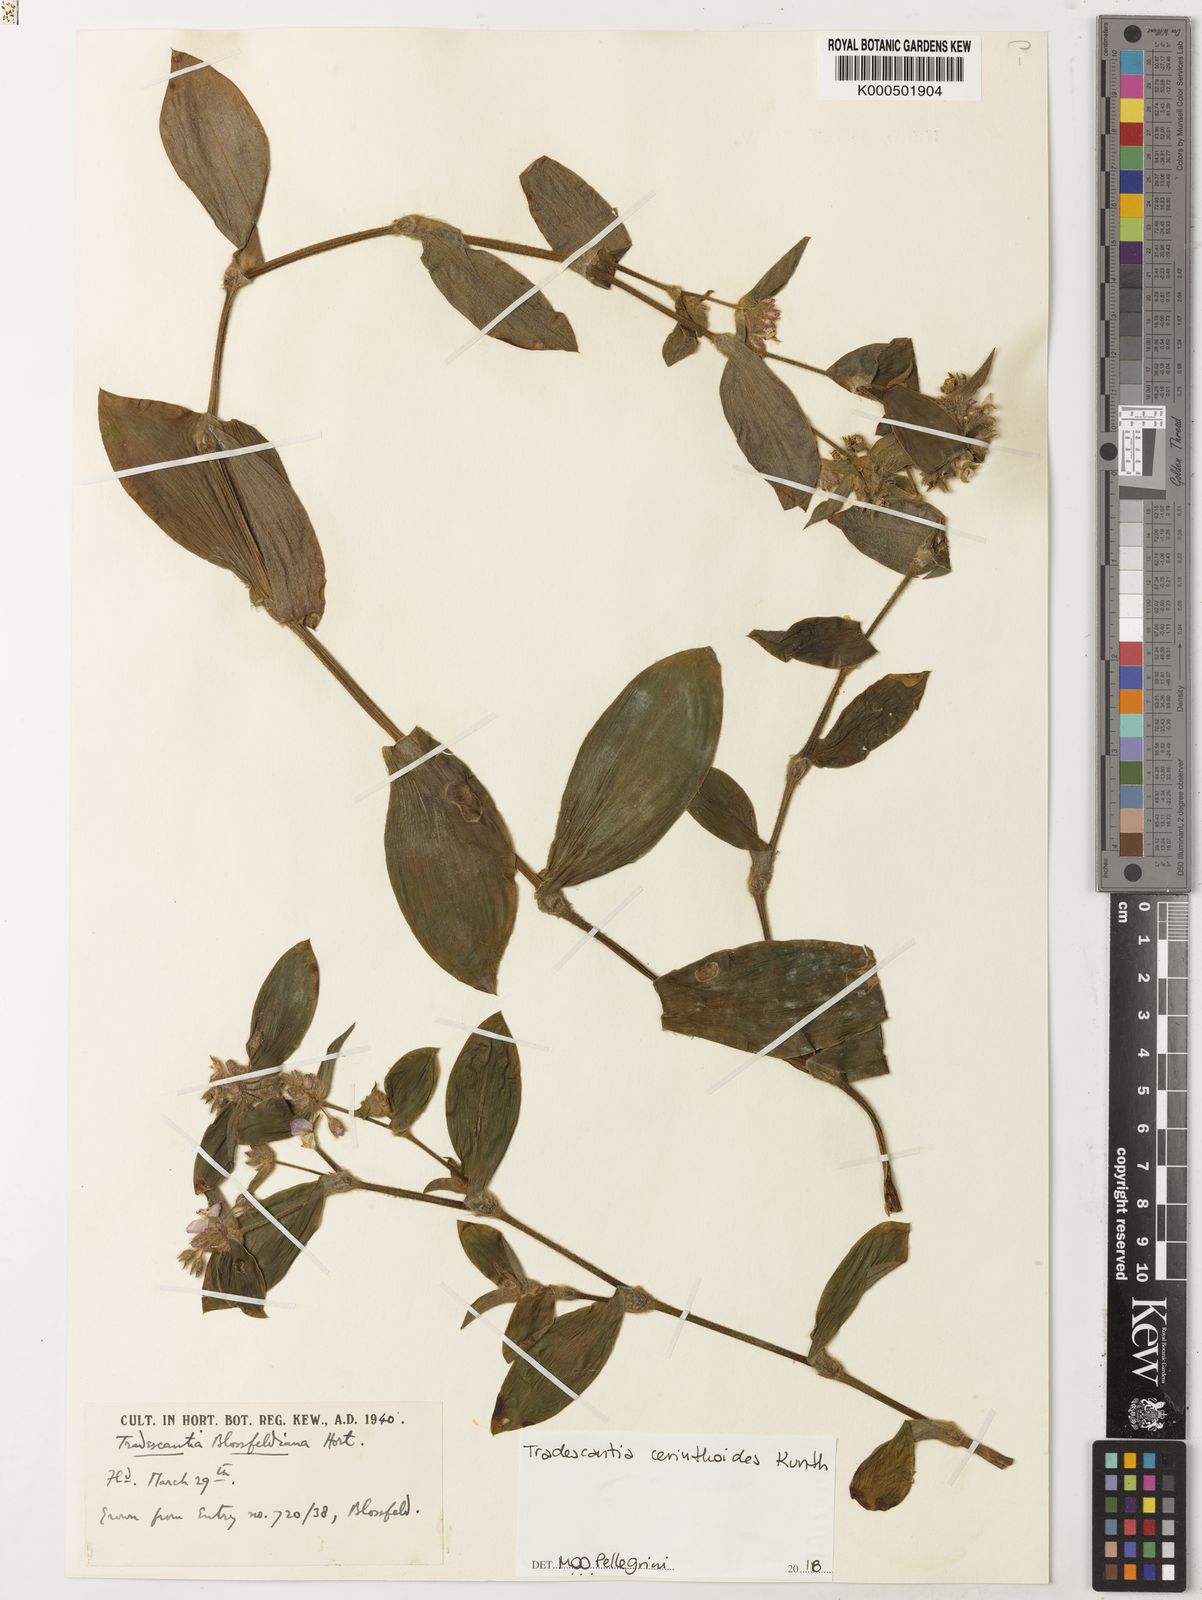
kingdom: Plantae
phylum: Tracheophyta
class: Liliopsida
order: Commelinales
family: Commelinaceae
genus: Tradescantia
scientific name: Tradescantia cerinthoides
